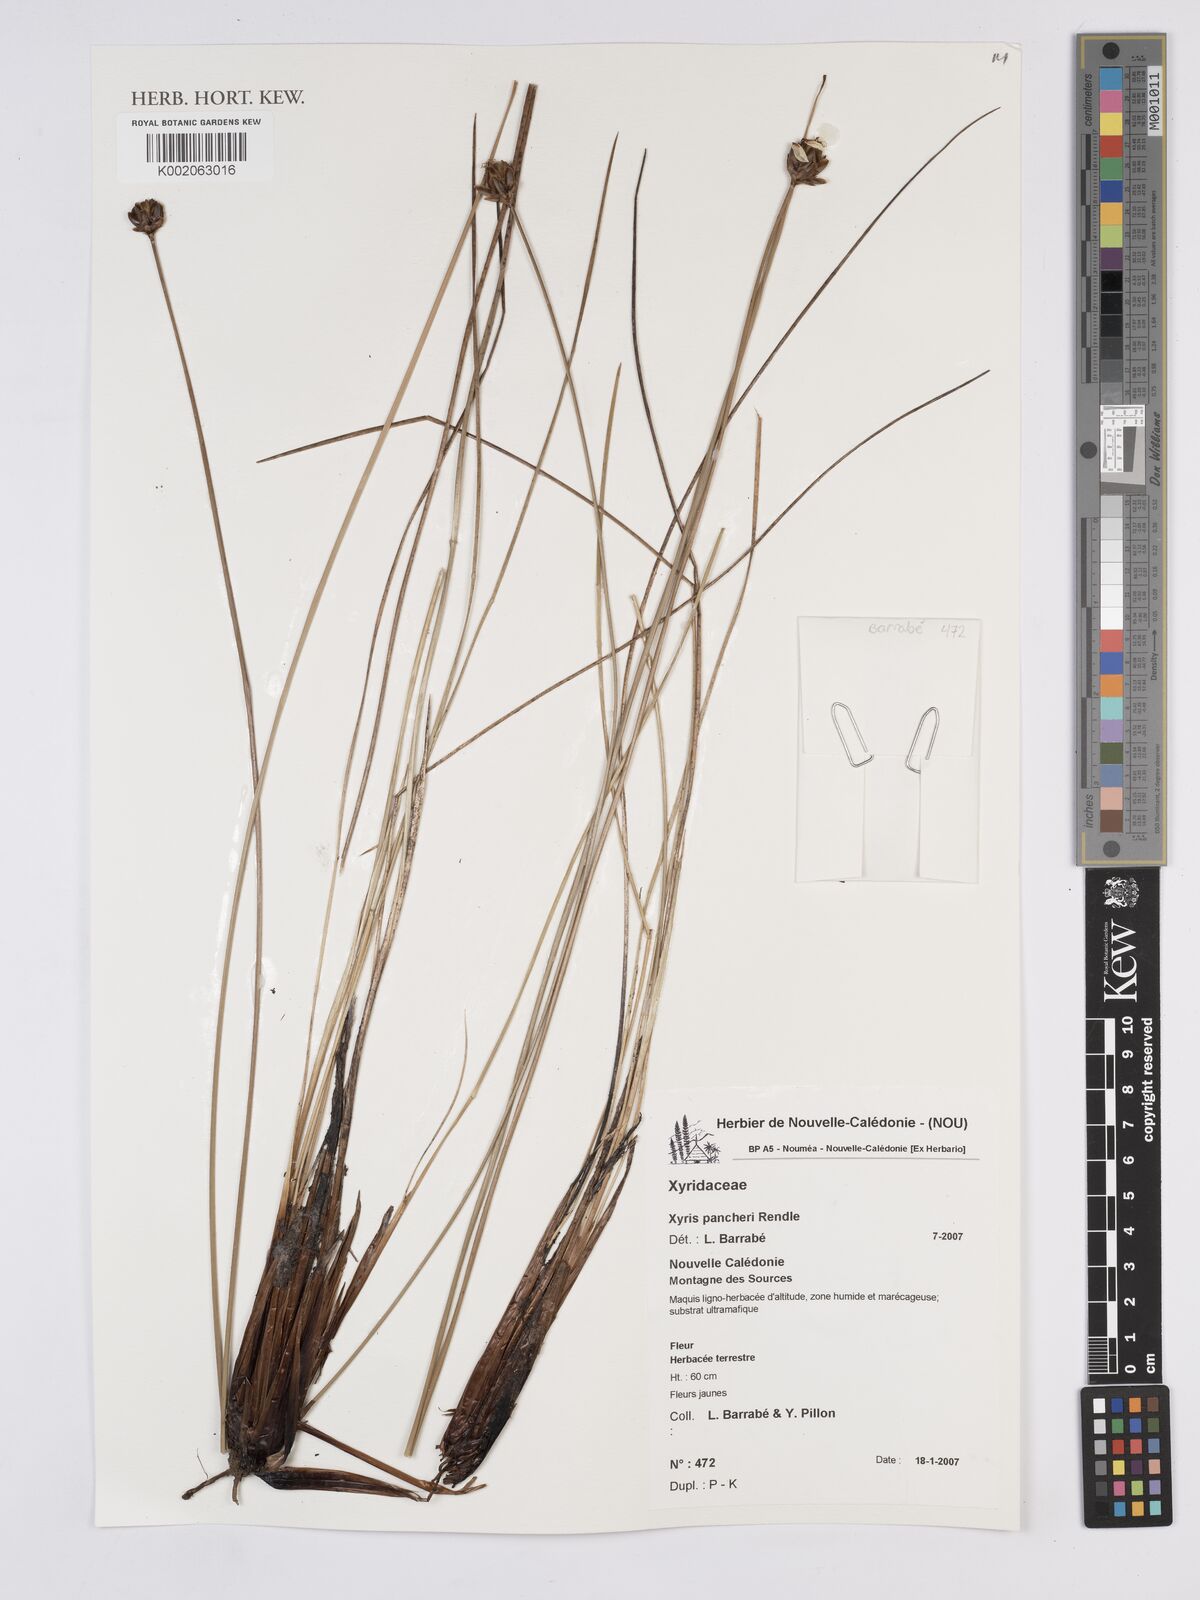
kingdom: Plantae
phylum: Tracheophyta
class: Liliopsida
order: Poales
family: Xyridaceae
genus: Xyris
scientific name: Xyris pancheri
